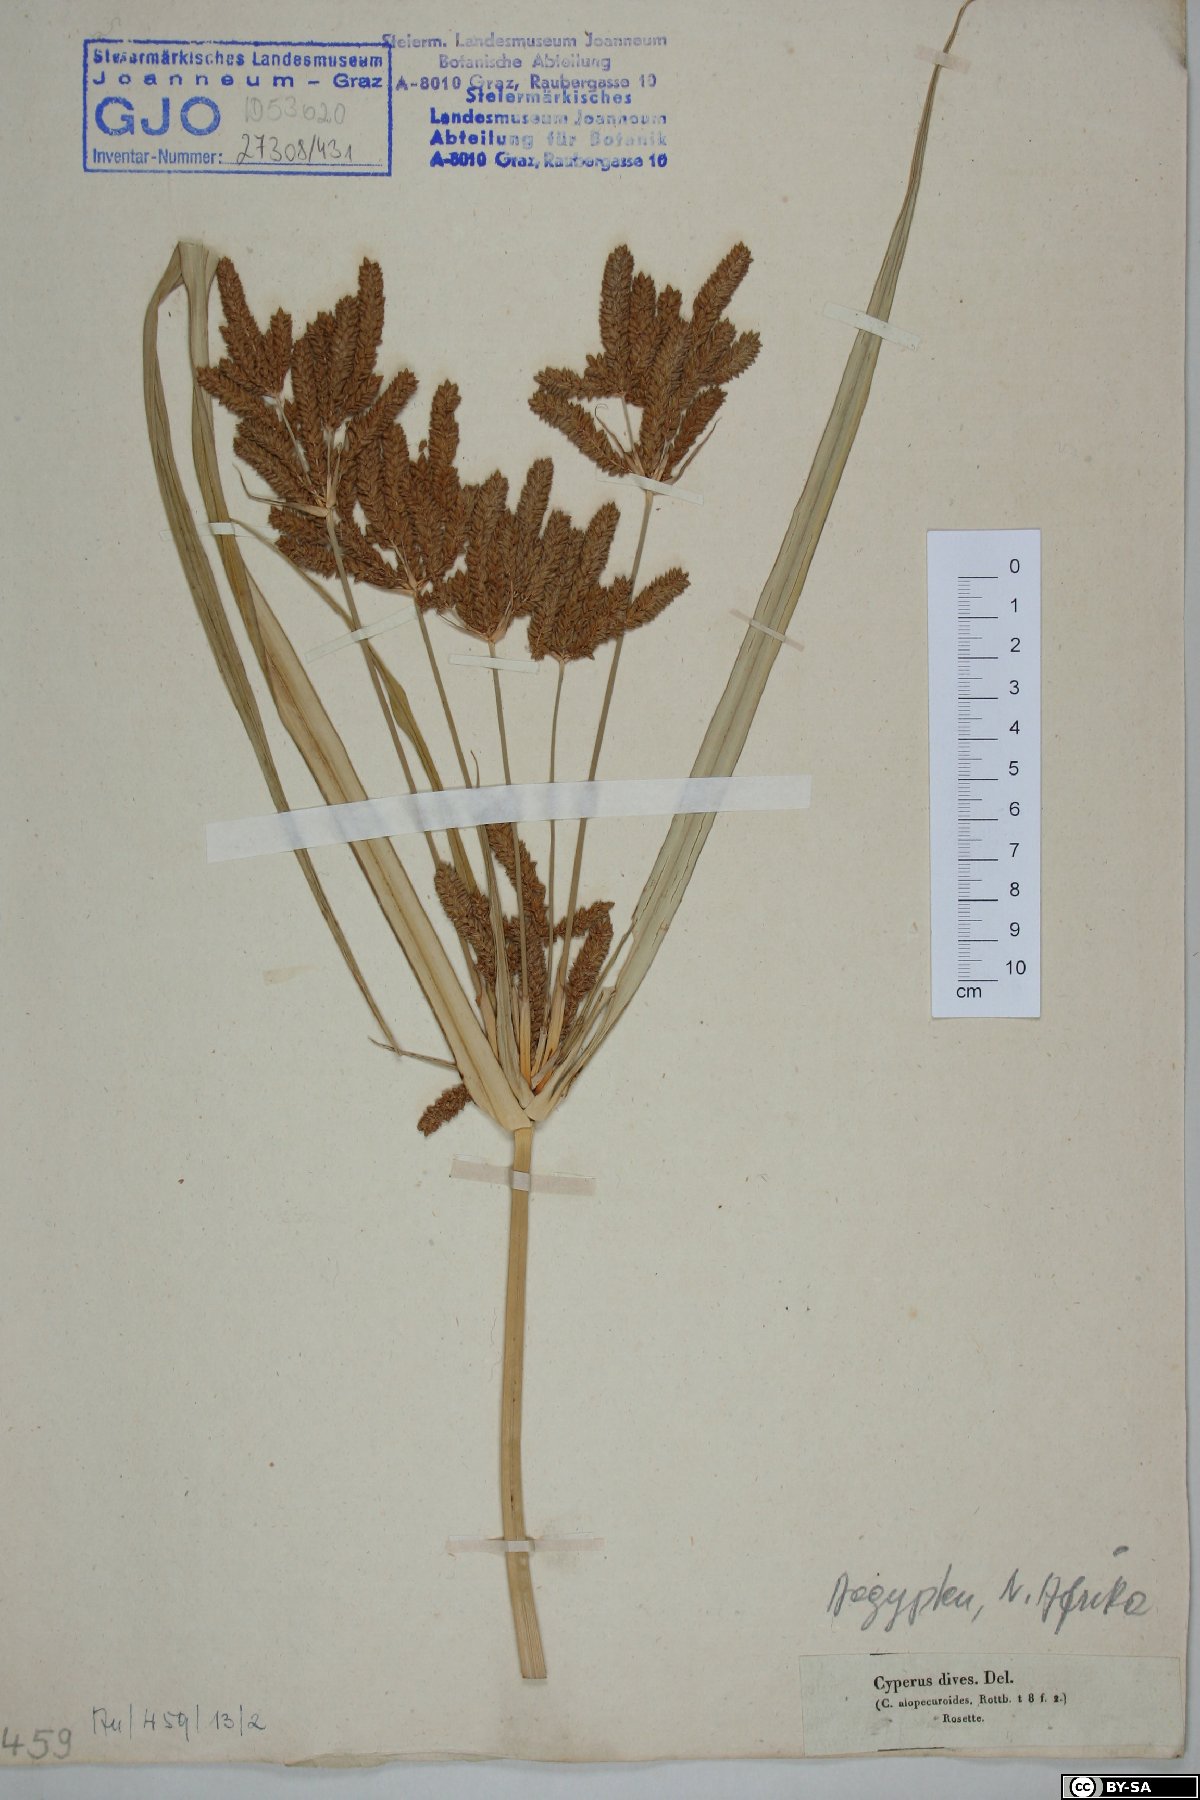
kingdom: Plantae
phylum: Tracheophyta
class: Liliopsida
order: Poales
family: Cyperaceae
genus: Cyperus
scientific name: Cyperus dives
